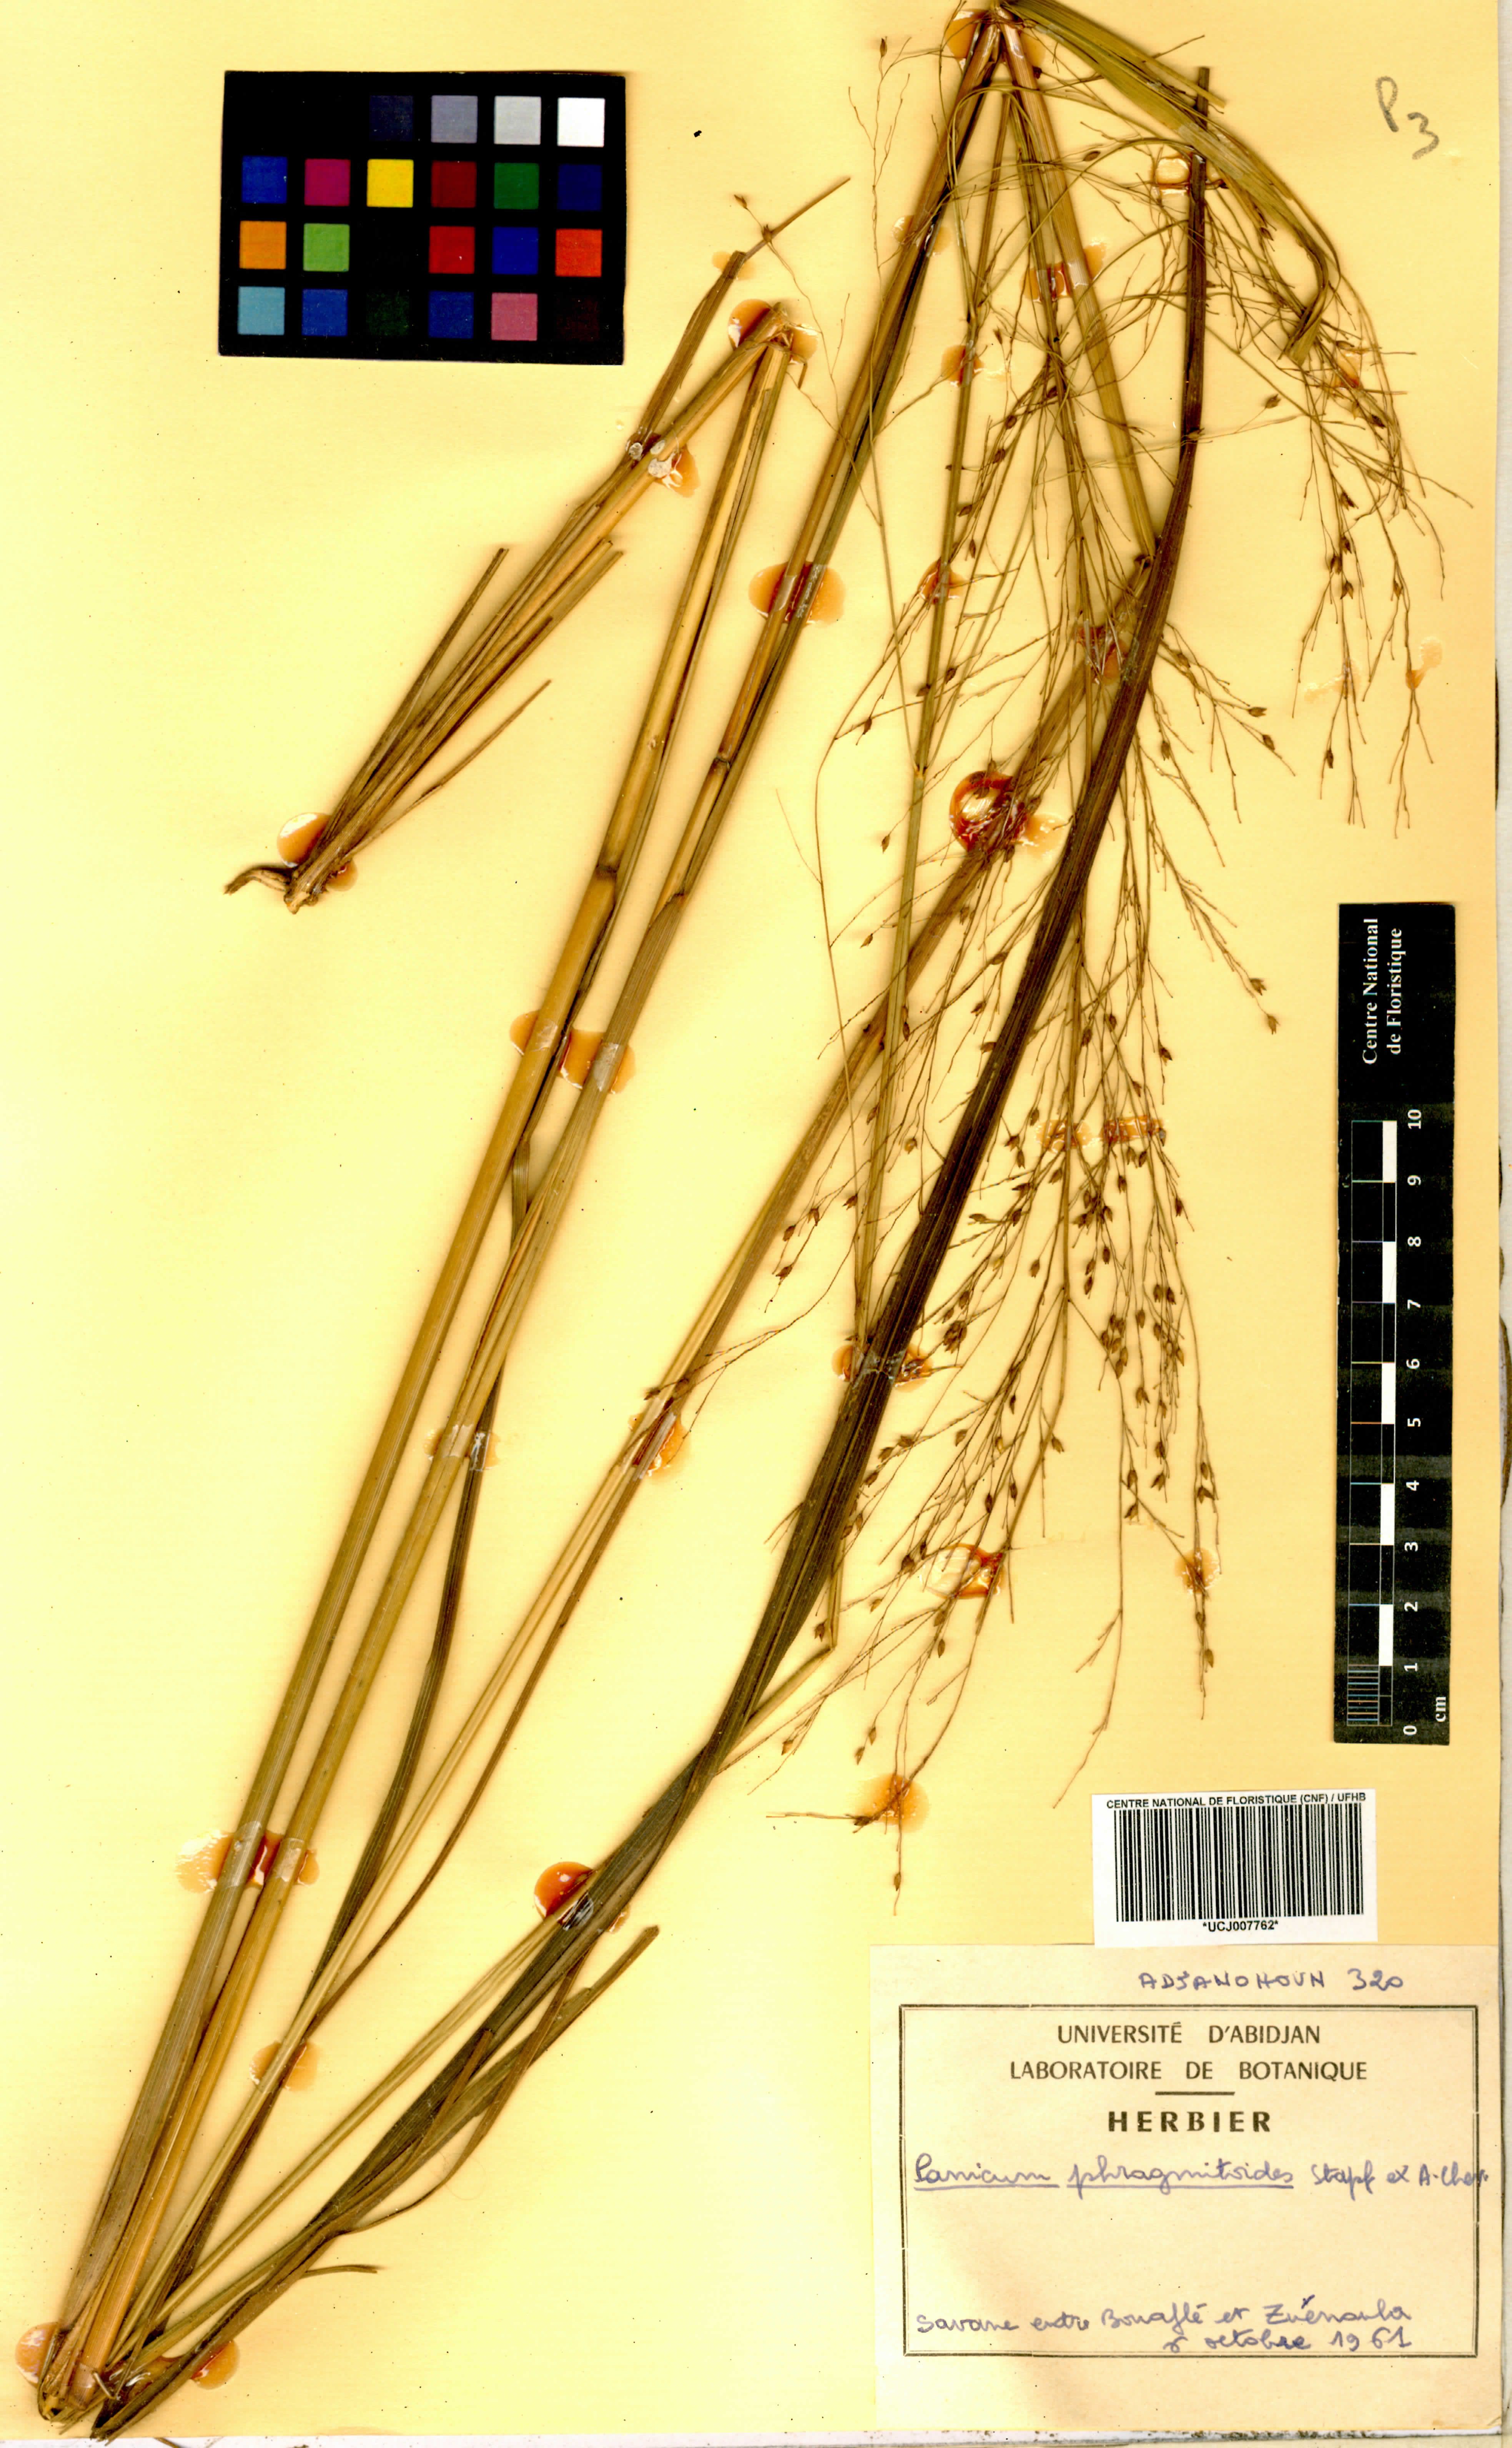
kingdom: Plantae
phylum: Tracheophyta
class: Liliopsida
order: Poales
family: Poaceae
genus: Panicum
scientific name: Panicum phragmitoides
